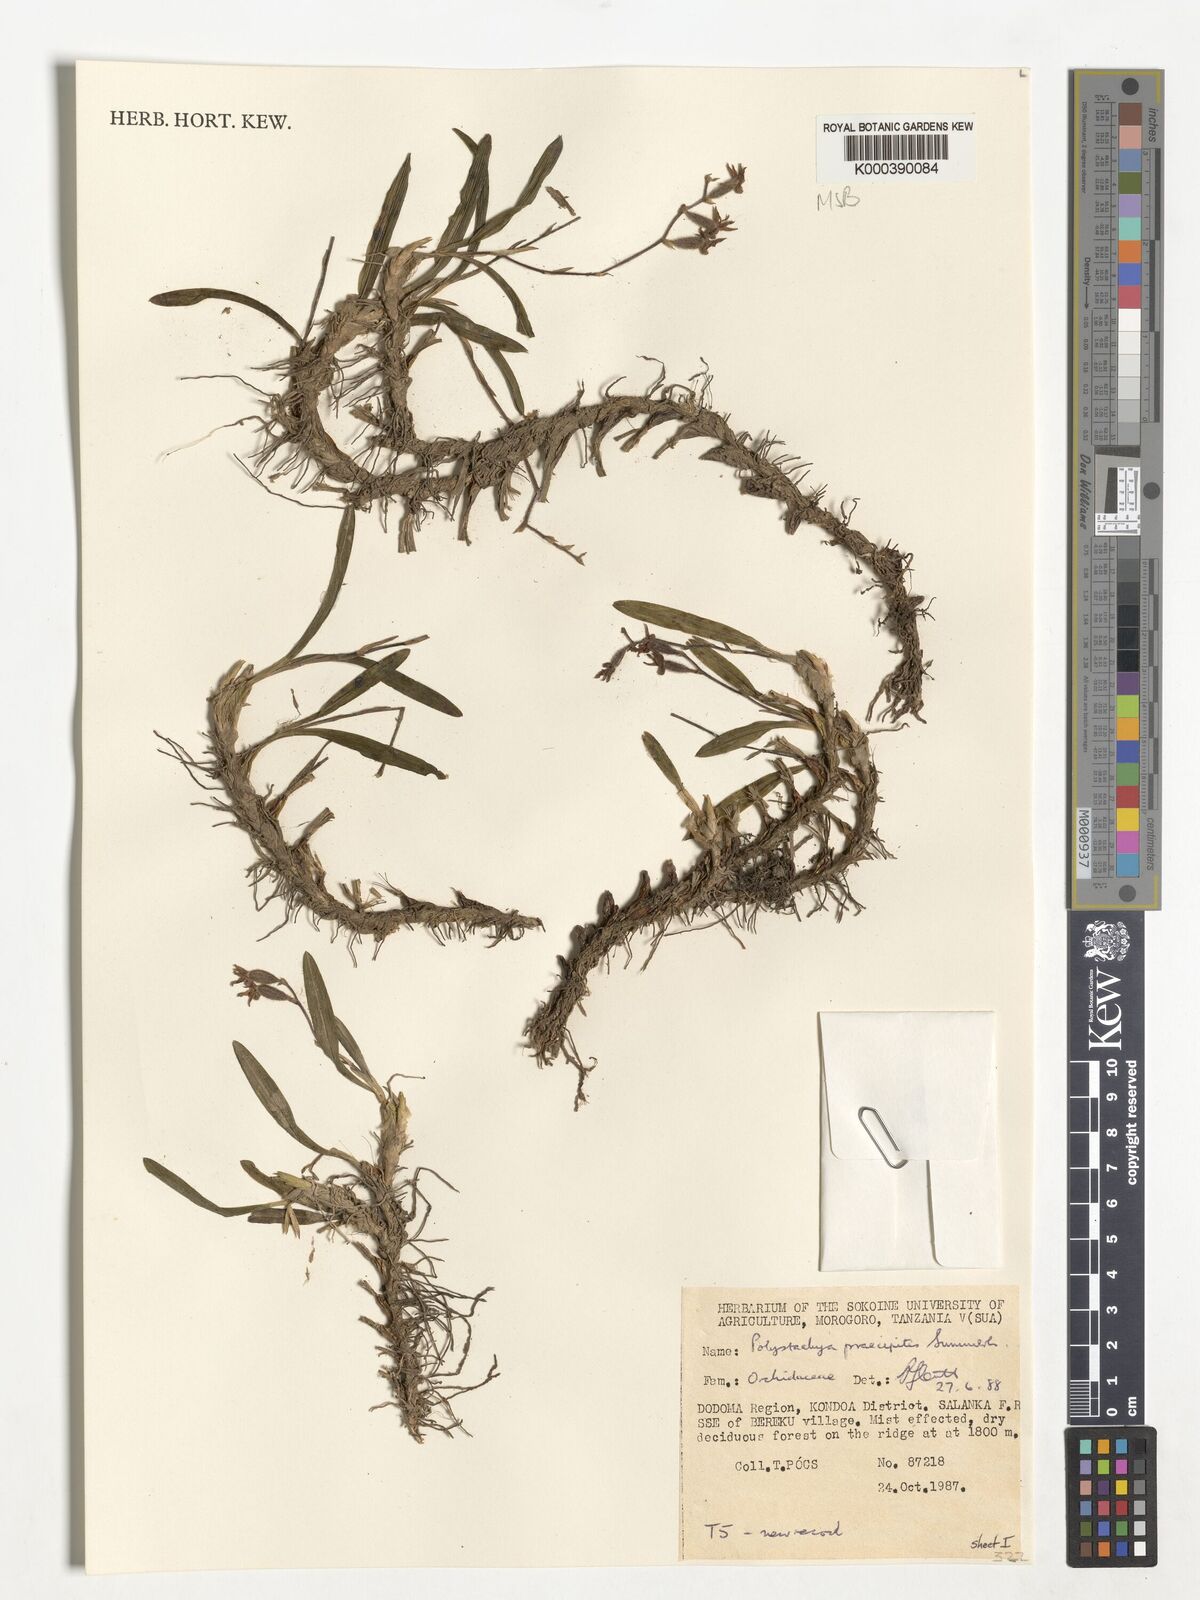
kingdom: Plantae
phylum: Tracheophyta
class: Liliopsida
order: Asparagales
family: Orchidaceae
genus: Polystachya
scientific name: Polystachya praecipitis
